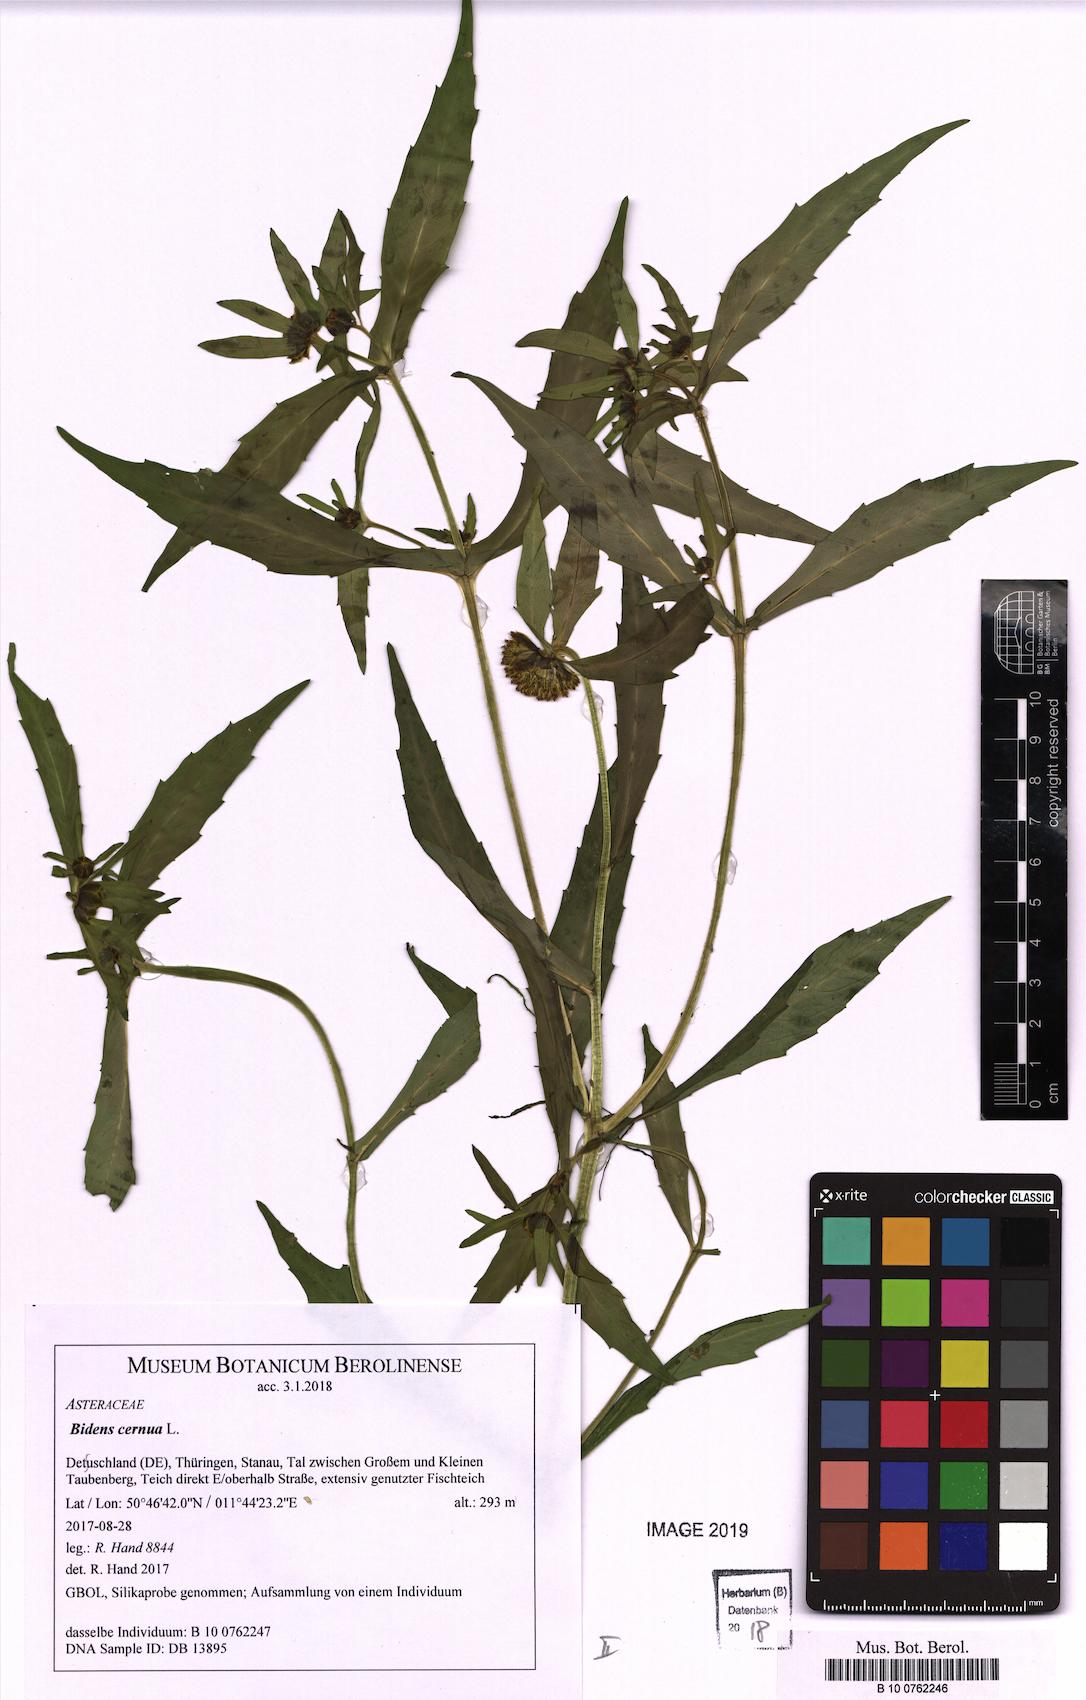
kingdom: Plantae
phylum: Tracheophyta
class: Magnoliopsida
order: Asterales
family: Asteraceae
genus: Bidens
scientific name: Bidens cernua
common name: Nodding bur-marigold
